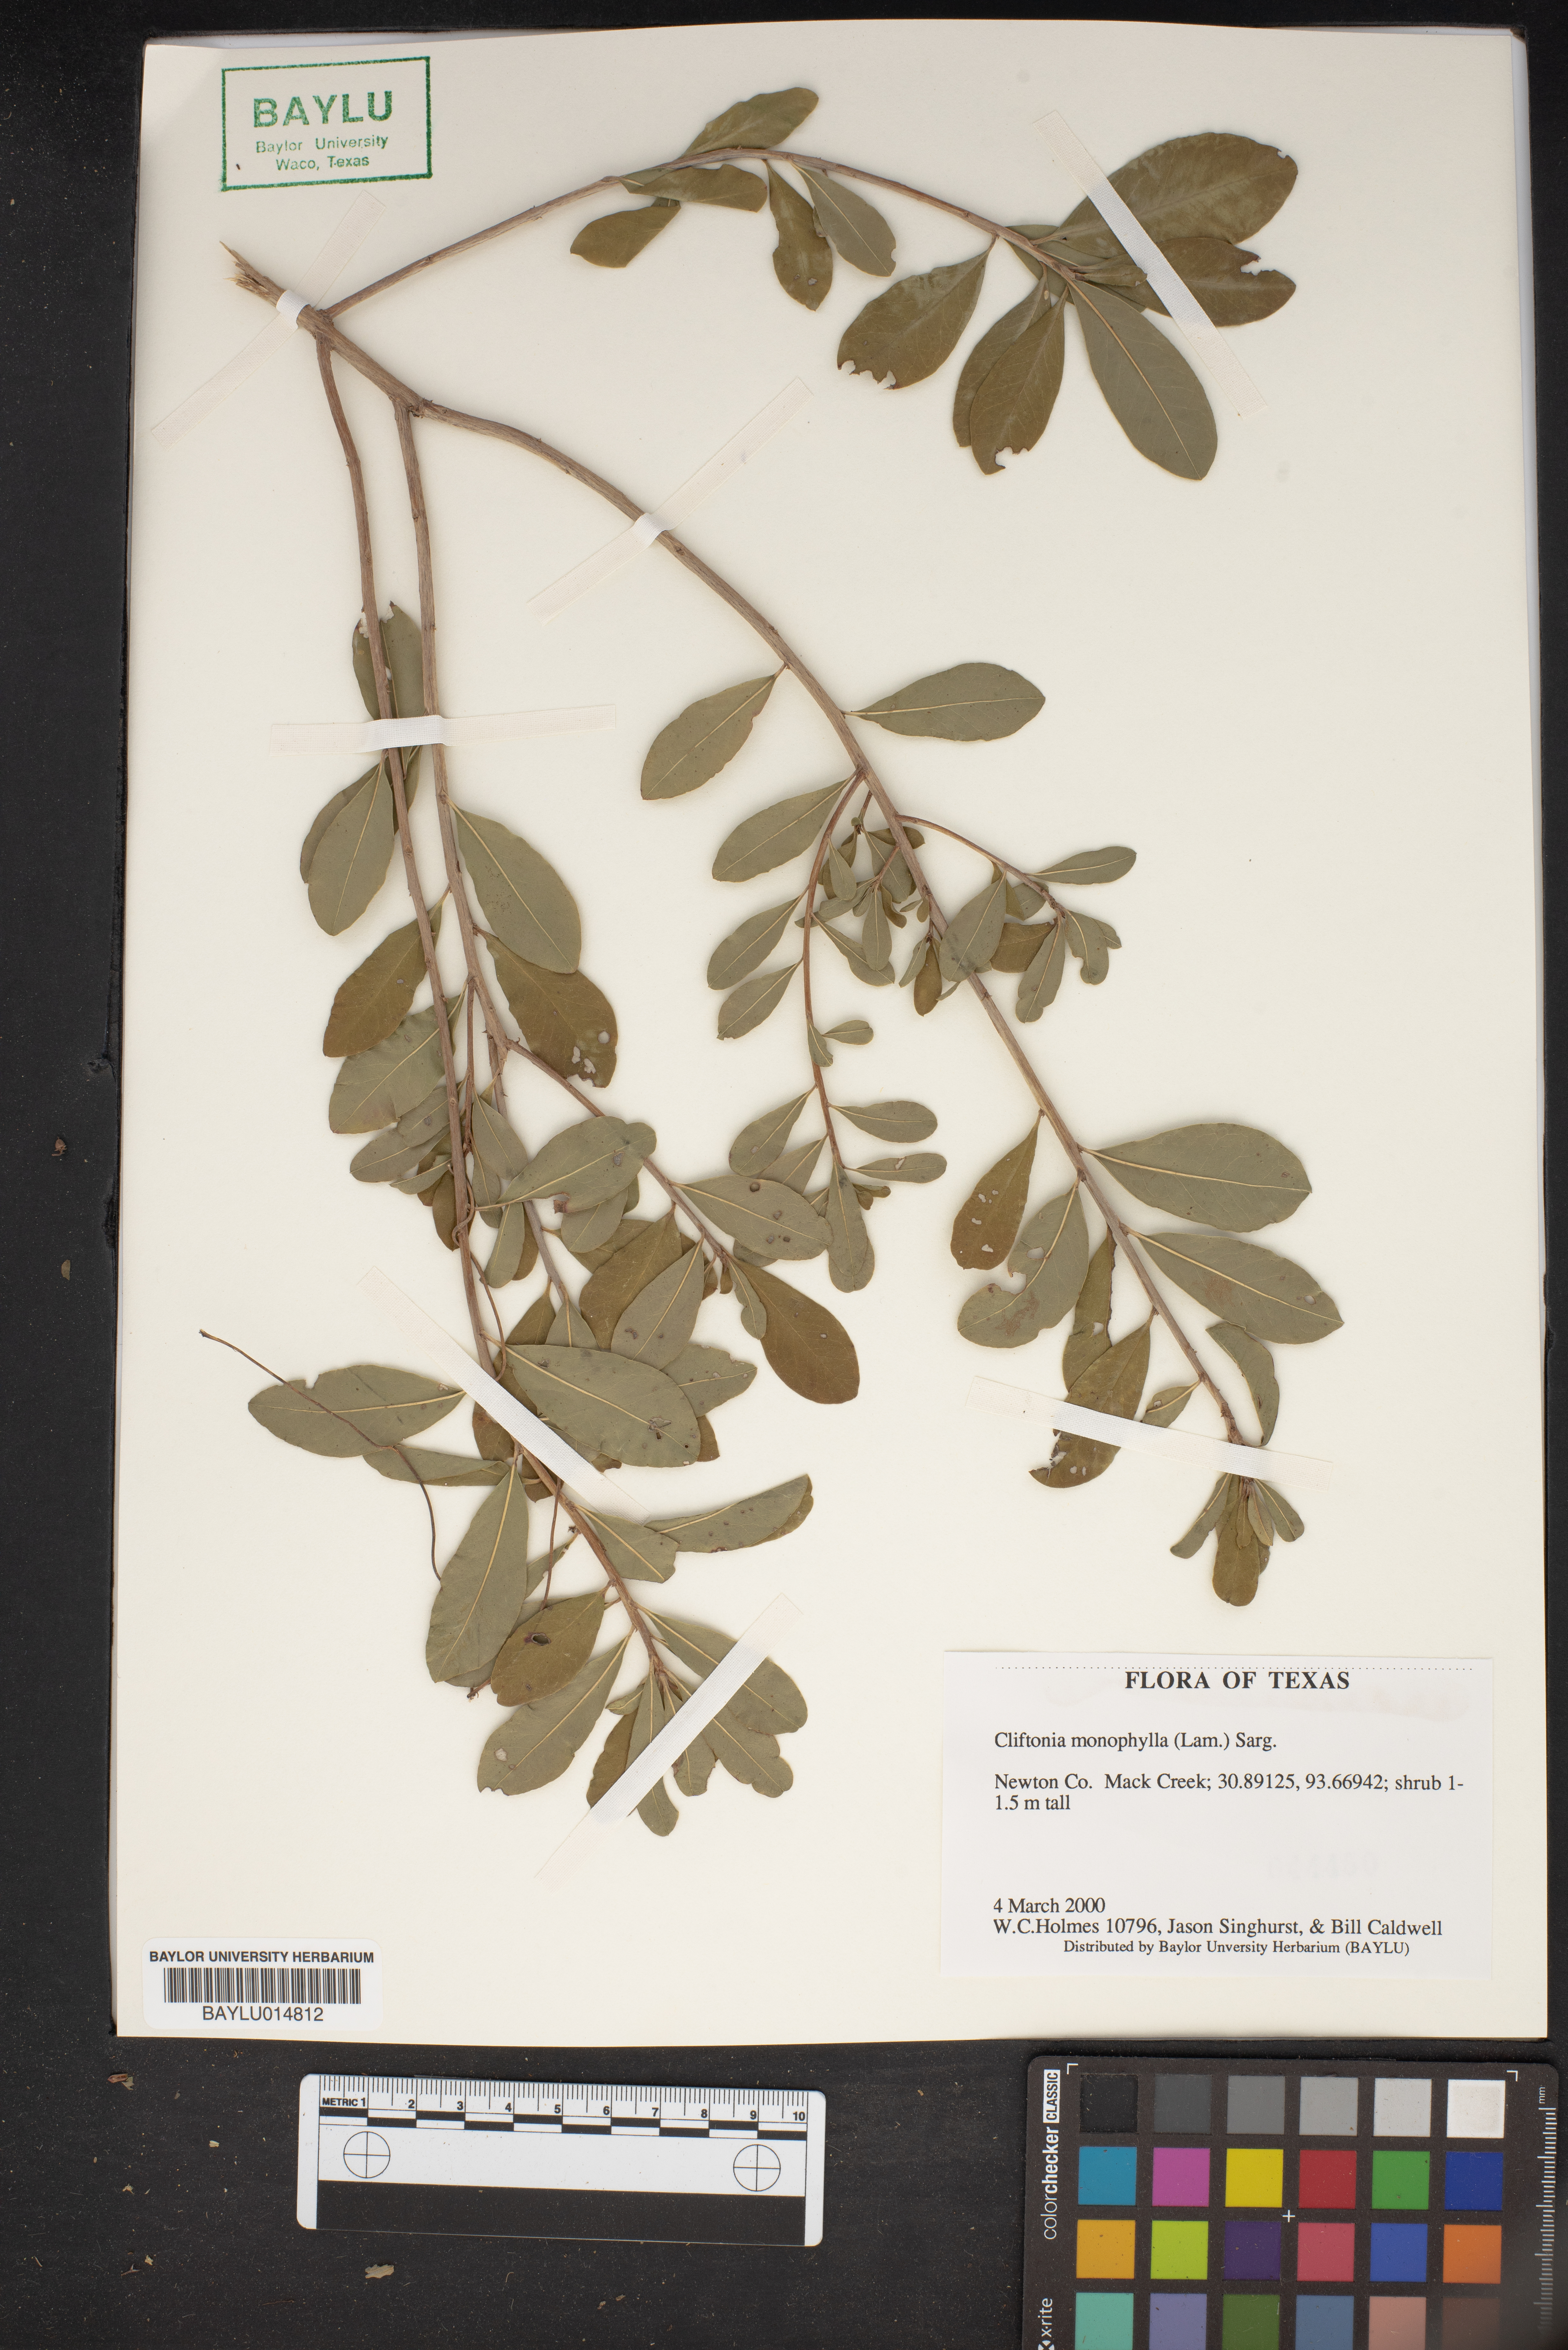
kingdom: Plantae
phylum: Tracheophyta
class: Magnoliopsida
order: Ericales
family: Cyrillaceae
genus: Cliftonia
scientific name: Cliftonia monophylla
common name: Titi
